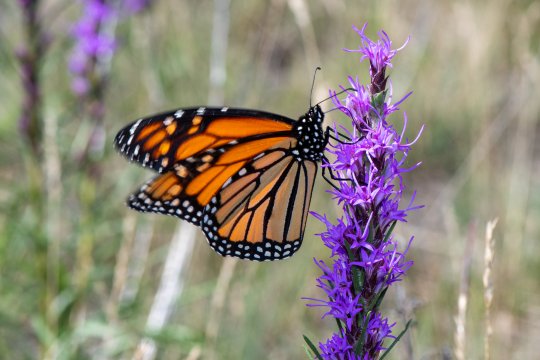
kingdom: Animalia
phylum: Arthropoda
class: Insecta
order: Lepidoptera
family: Nymphalidae
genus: Danaus
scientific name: Danaus plexippus
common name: Monarch
